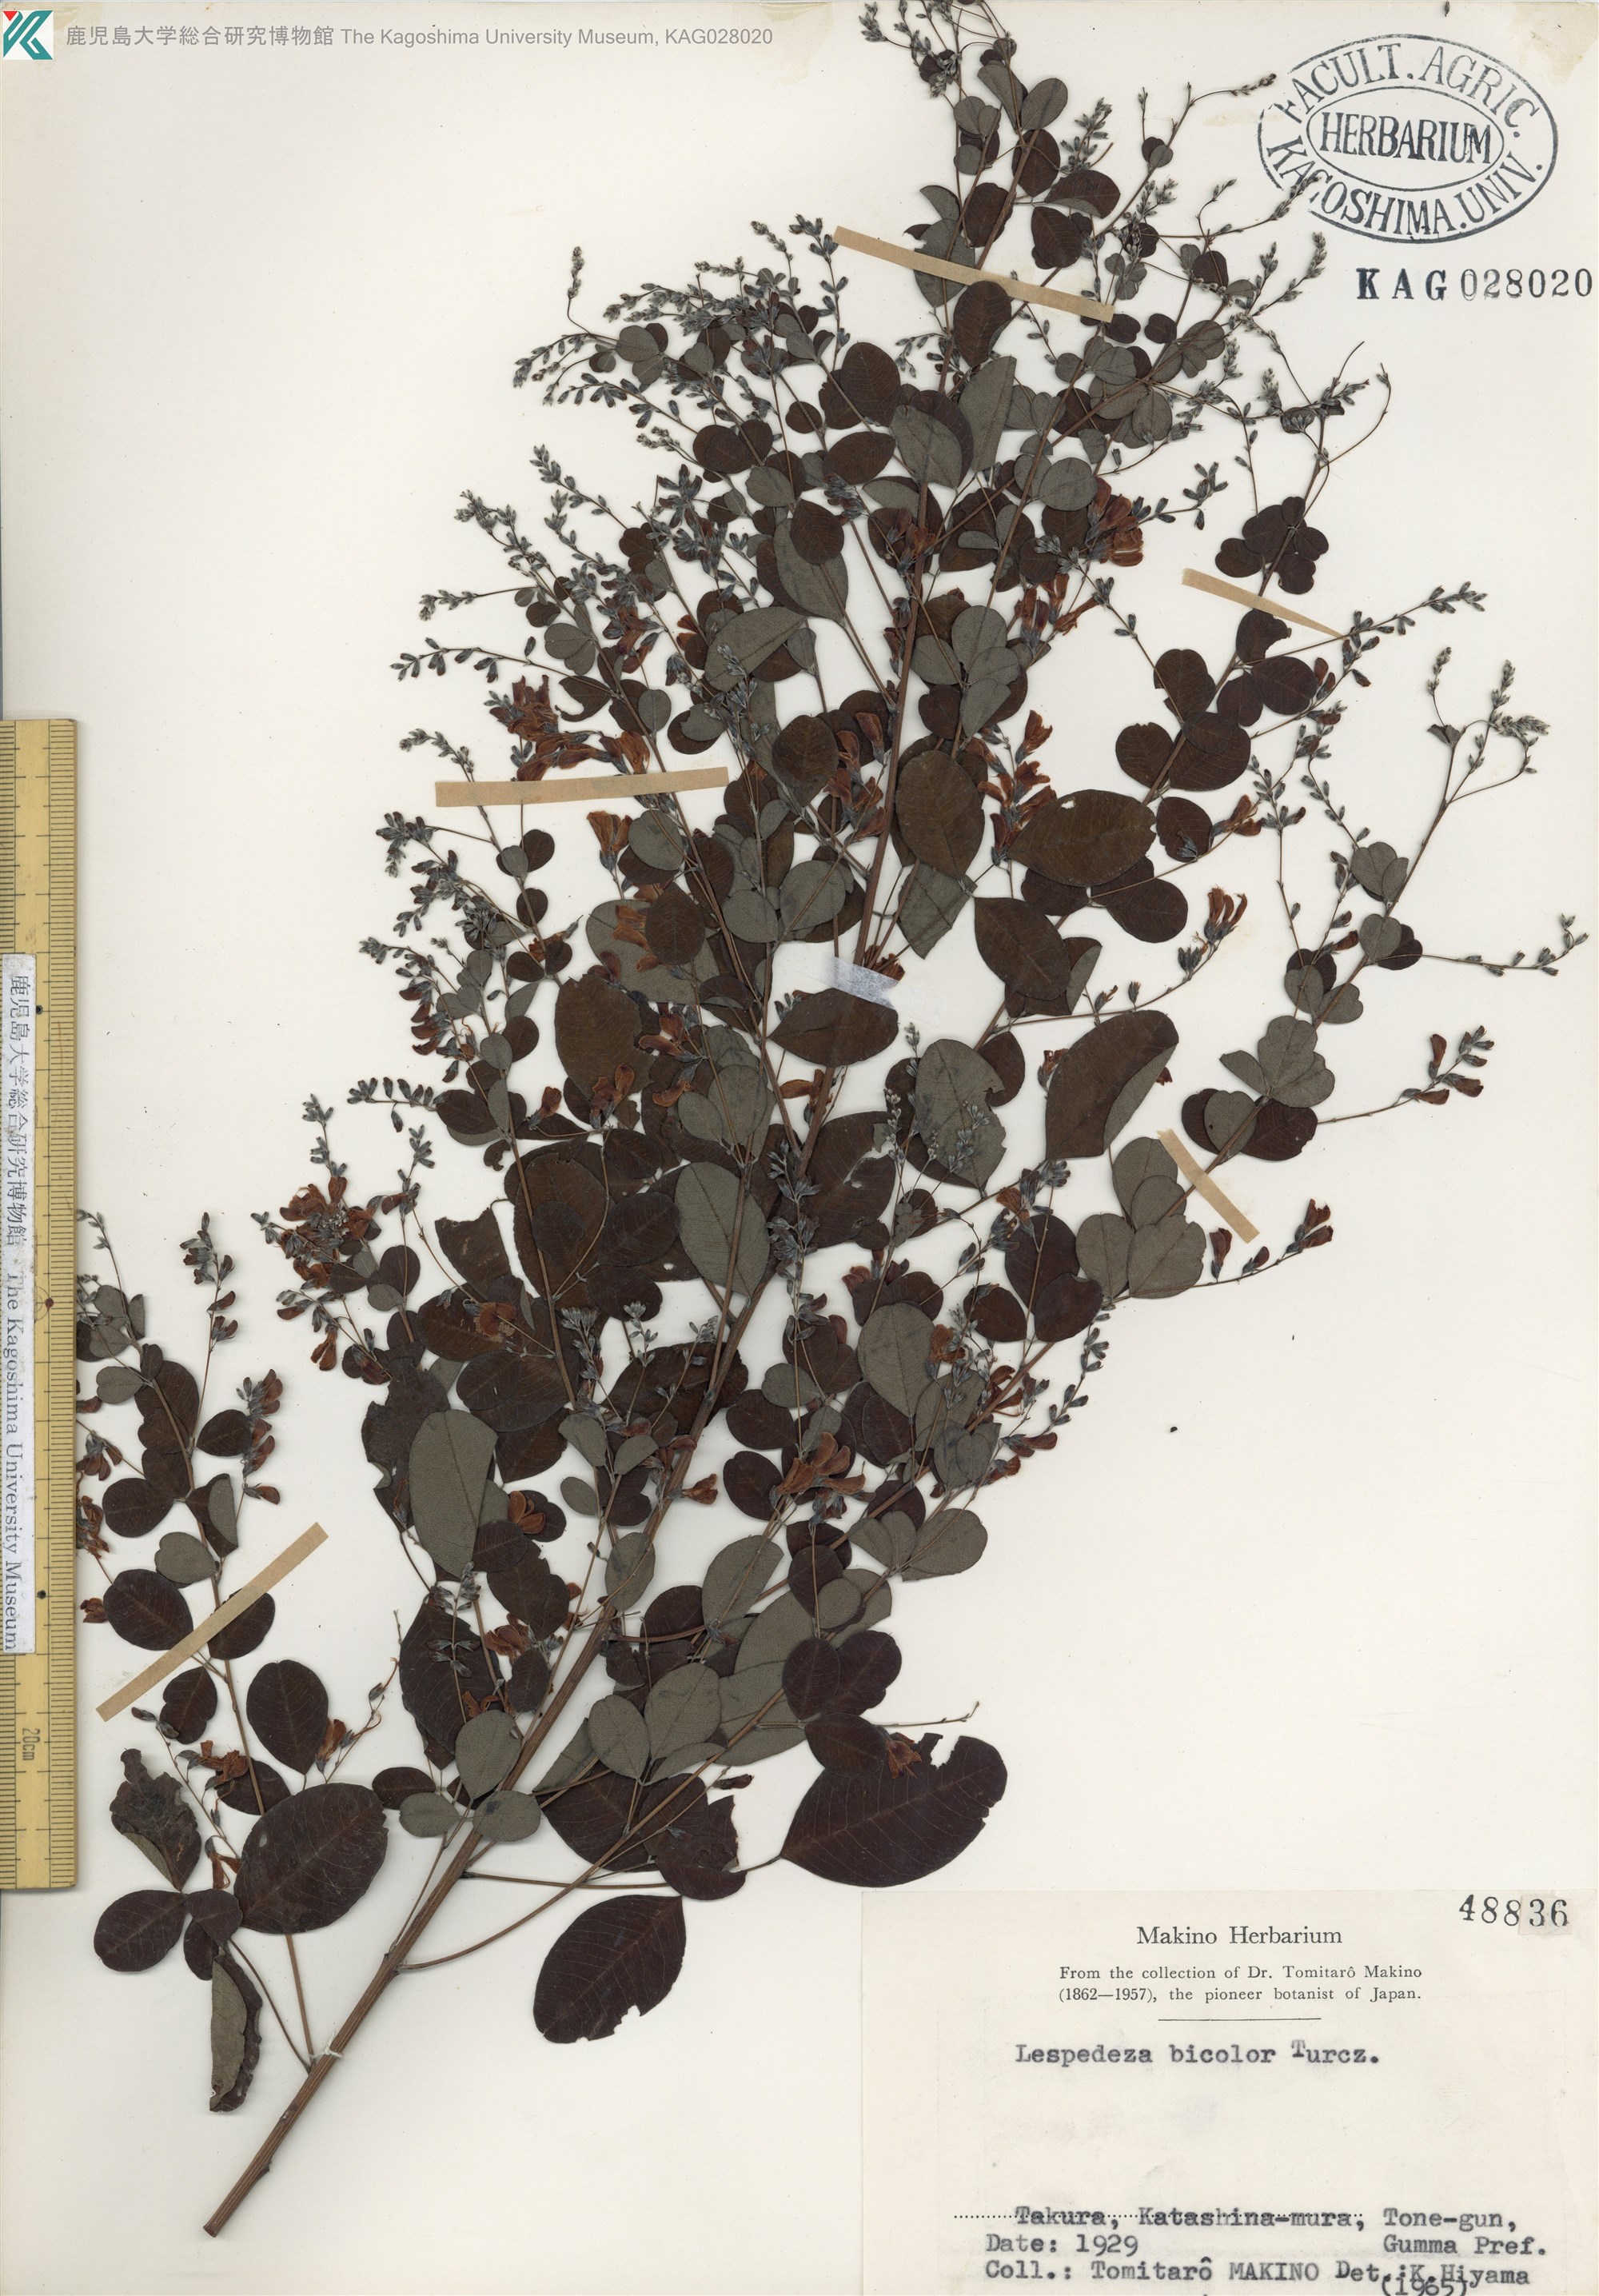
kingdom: Plantae
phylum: Tracheophyta
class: Magnoliopsida
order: Fabales
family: Fabaceae
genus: Lespedeza
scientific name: Lespedeza bicolor
